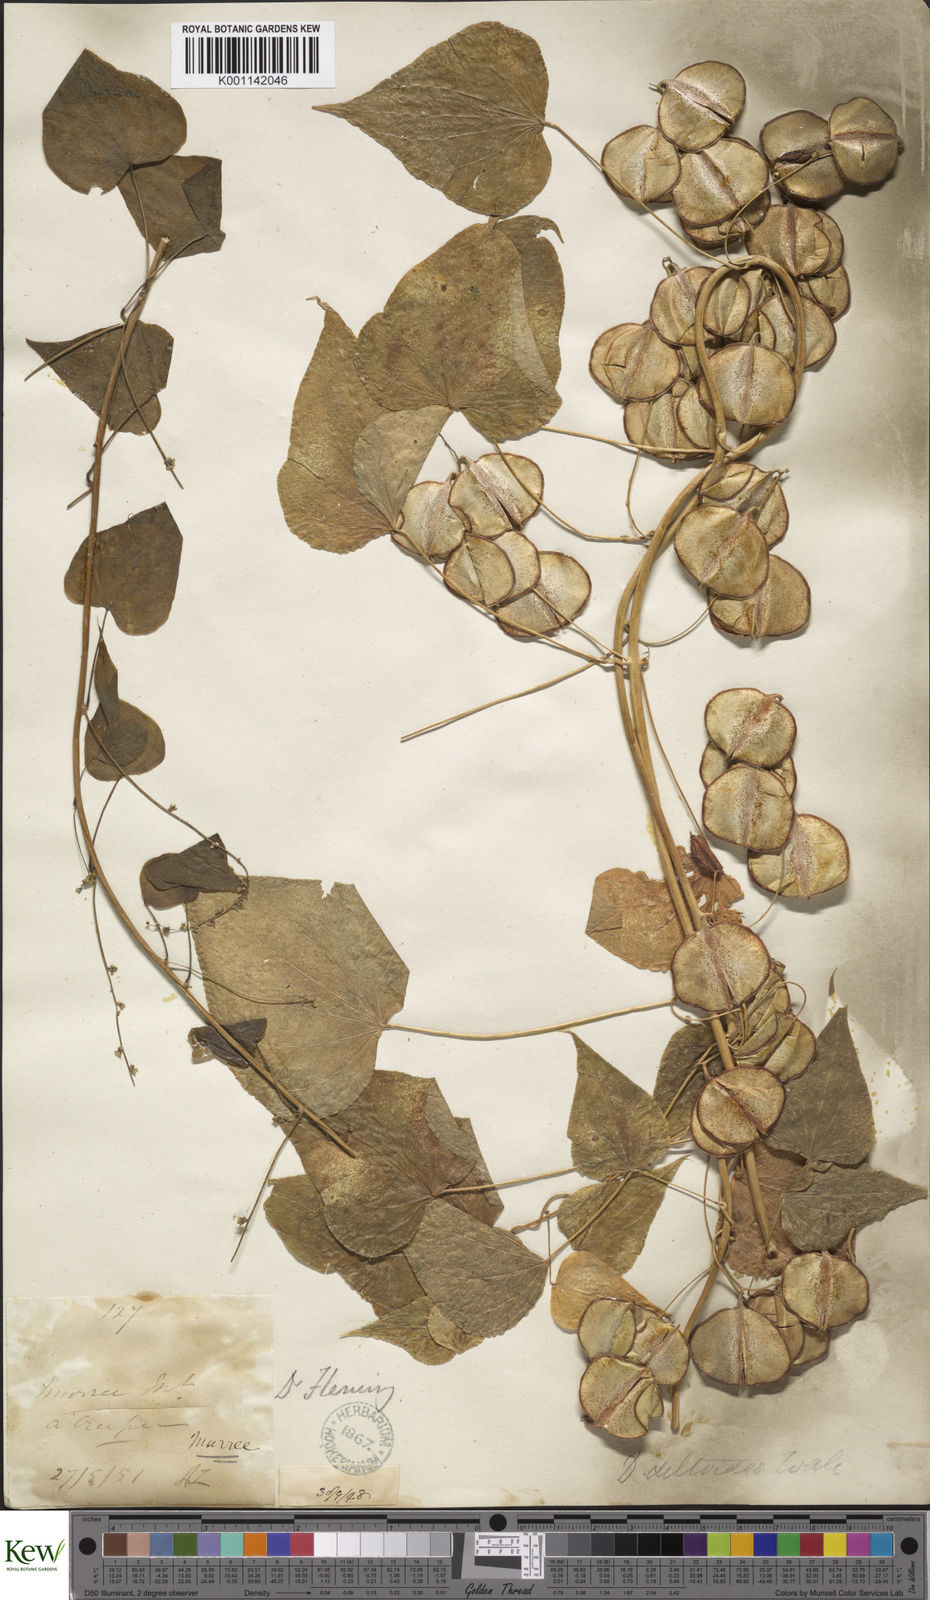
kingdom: Plantae
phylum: Tracheophyta
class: Liliopsida
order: Dioscoreales
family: Dioscoreaceae
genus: Dioscorea
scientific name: Dioscorea deltoidea
